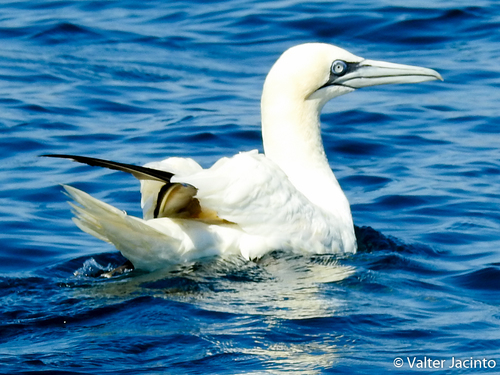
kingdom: Animalia
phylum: Chordata
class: Aves
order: Suliformes
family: Sulidae
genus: Morus
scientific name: Morus bassanus
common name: Northern gannet
